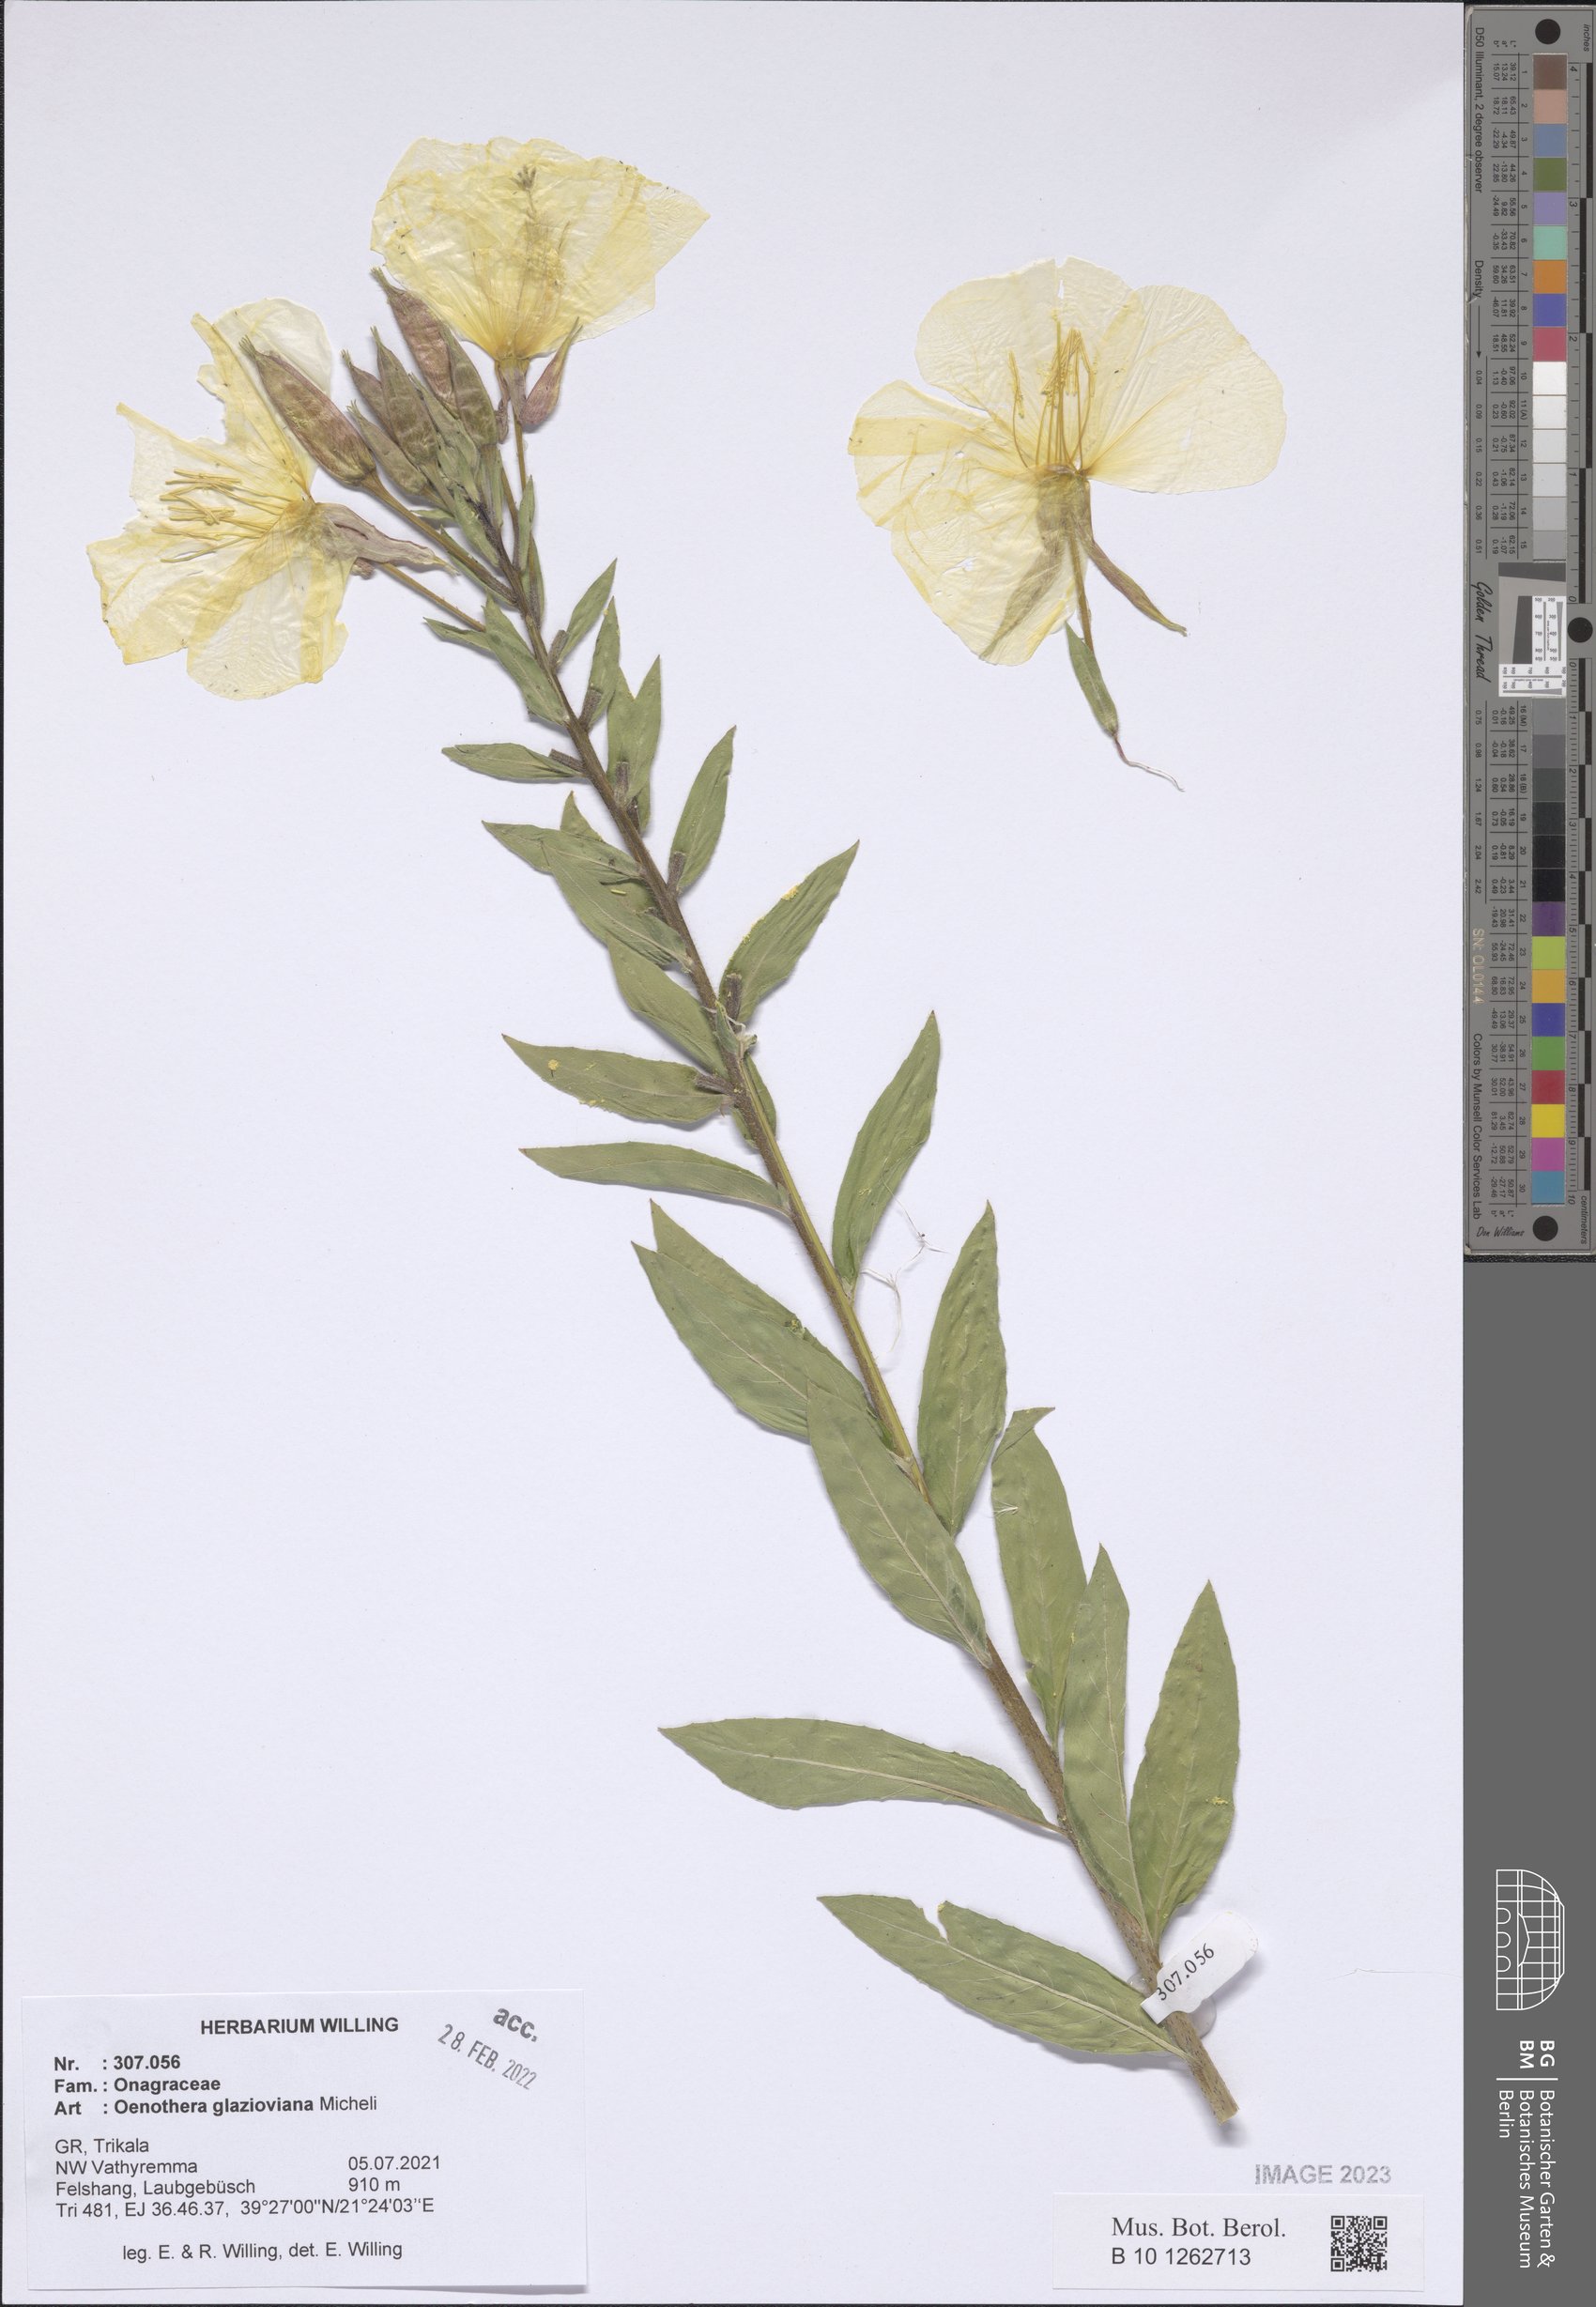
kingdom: Plantae
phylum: Tracheophyta
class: Magnoliopsida
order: Myrtales
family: Onagraceae
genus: Oenothera
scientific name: Oenothera glazioviana
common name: Large-flowered evening-primrose
